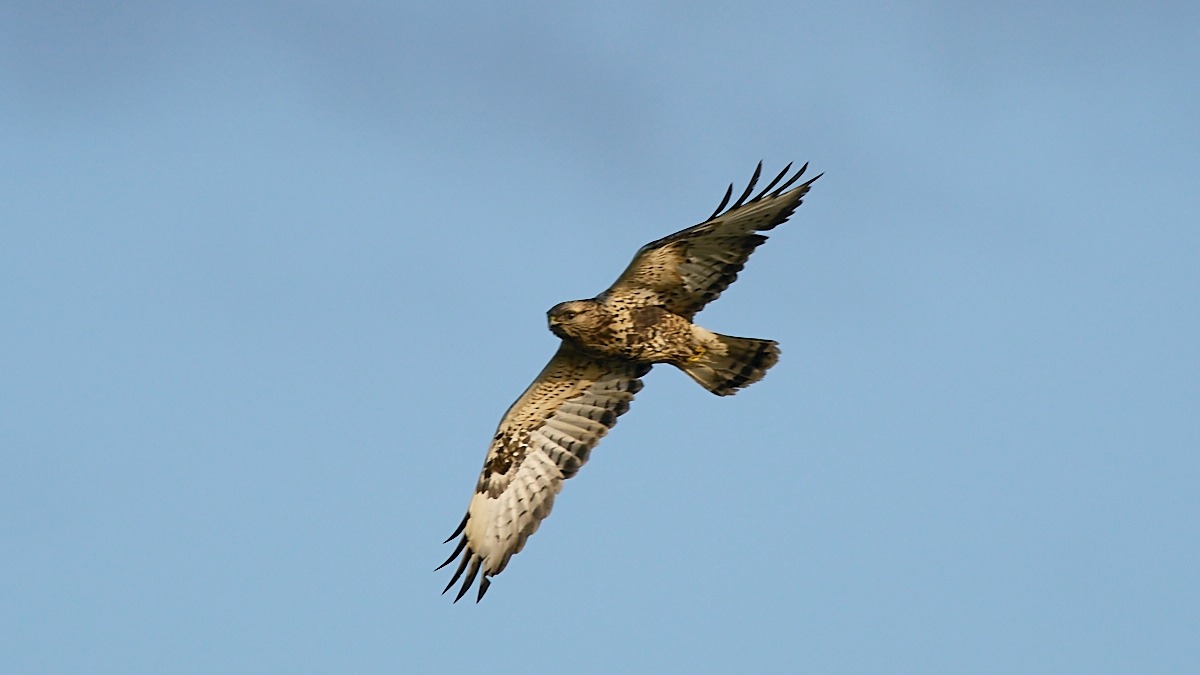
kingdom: Animalia
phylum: Chordata
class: Aves
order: Accipitriformes
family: Accipitridae
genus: Buteo
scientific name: Buteo lagopus
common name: Fjeldvåge
